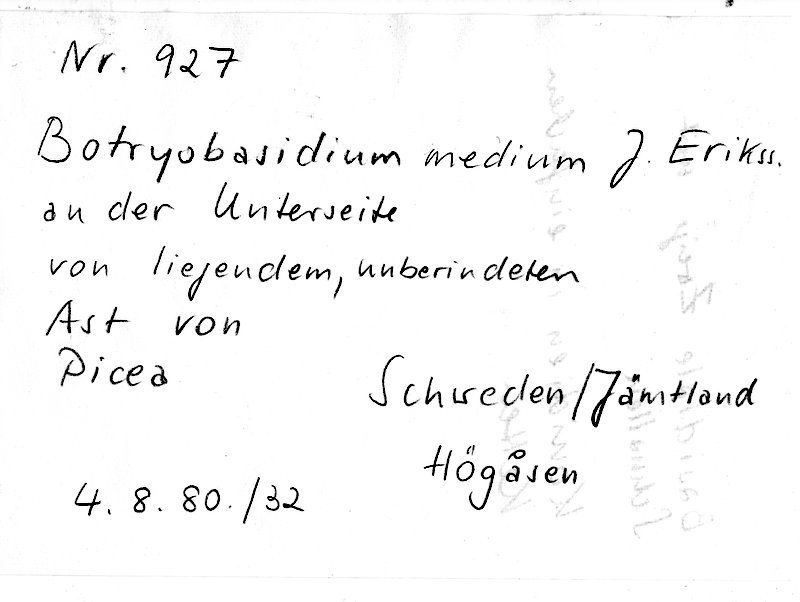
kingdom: Plantae
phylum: Tracheophyta
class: Pinopsida
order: Pinales
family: Pinaceae
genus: Picea
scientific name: Picea
